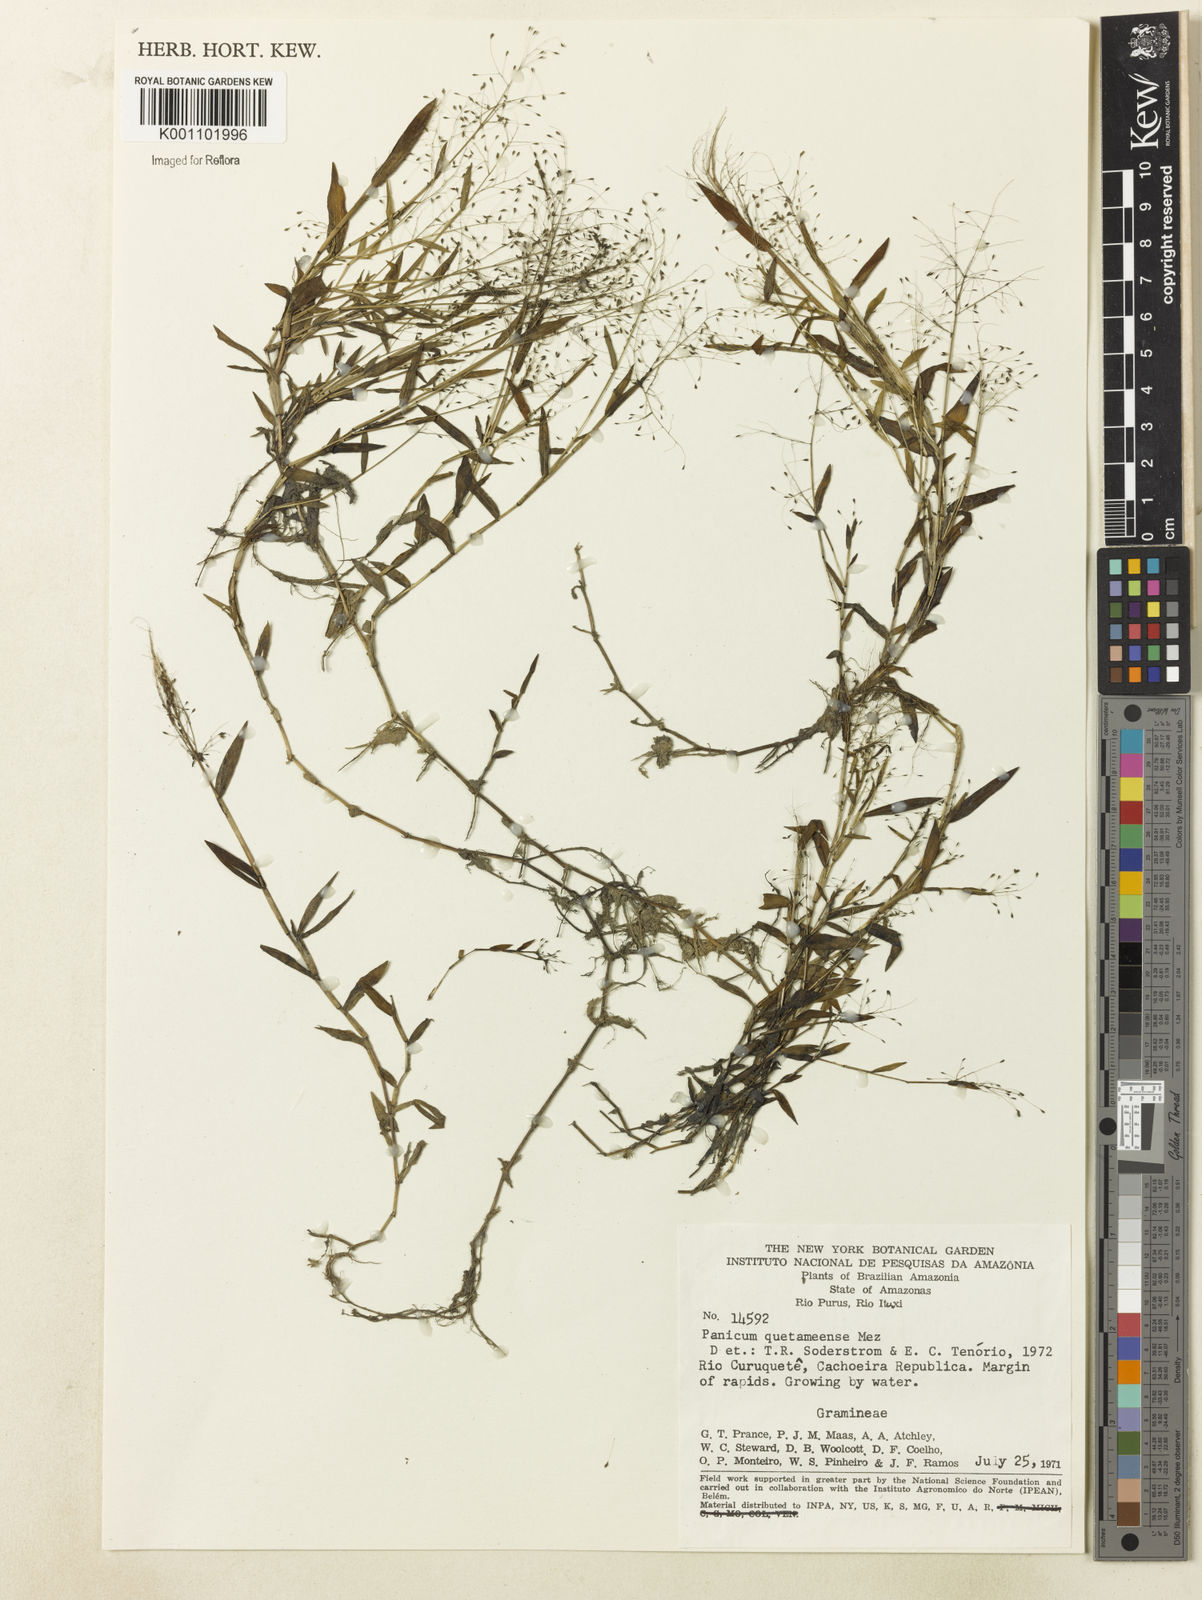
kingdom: Plantae
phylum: Tracheophyta
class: Liliopsida
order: Poales
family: Poaceae
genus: Trichanthecium
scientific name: Trichanthecium pyrularium
